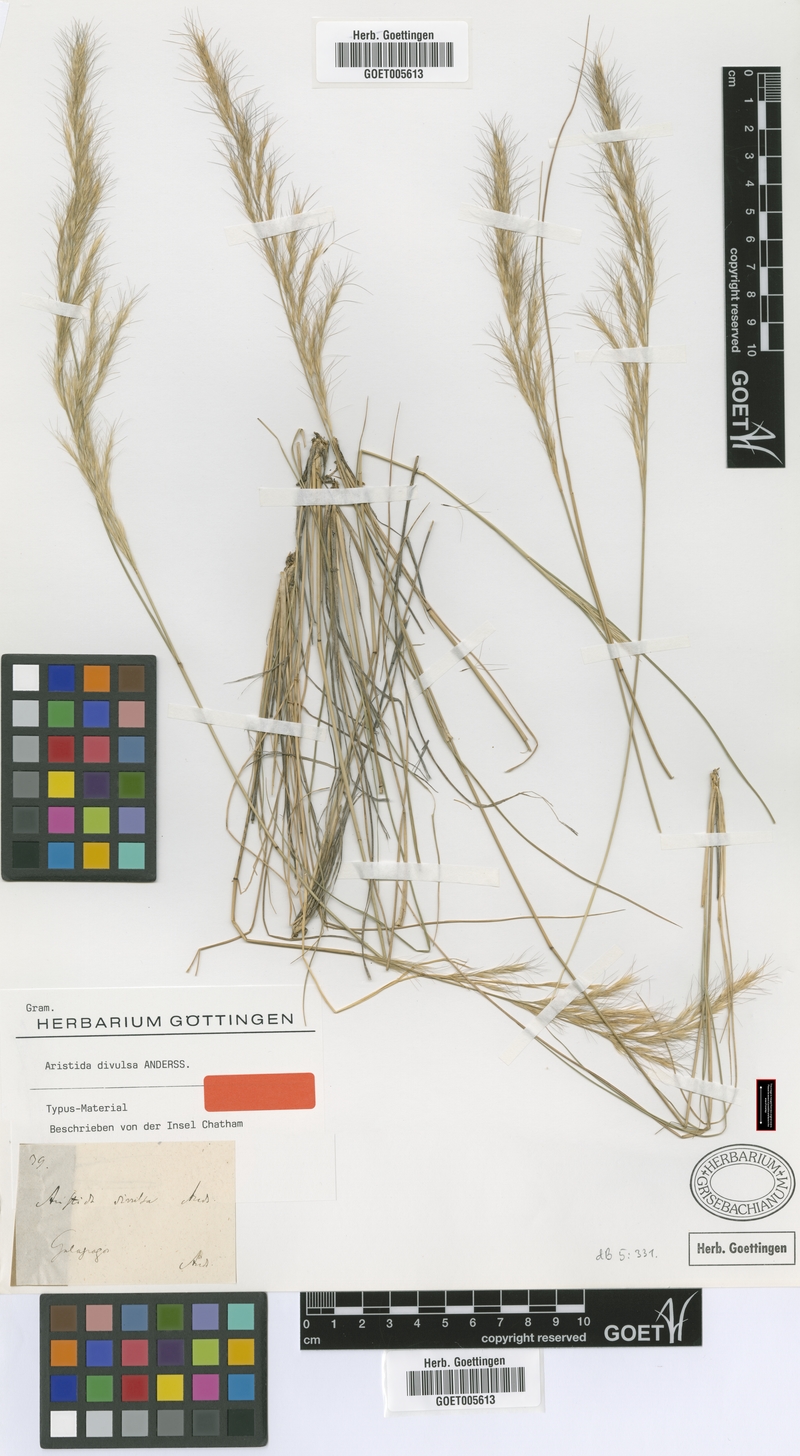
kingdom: Plantae
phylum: Tracheophyta
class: Liliopsida
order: Poales
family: Poaceae
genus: Aristida
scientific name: Aristida divulsa
